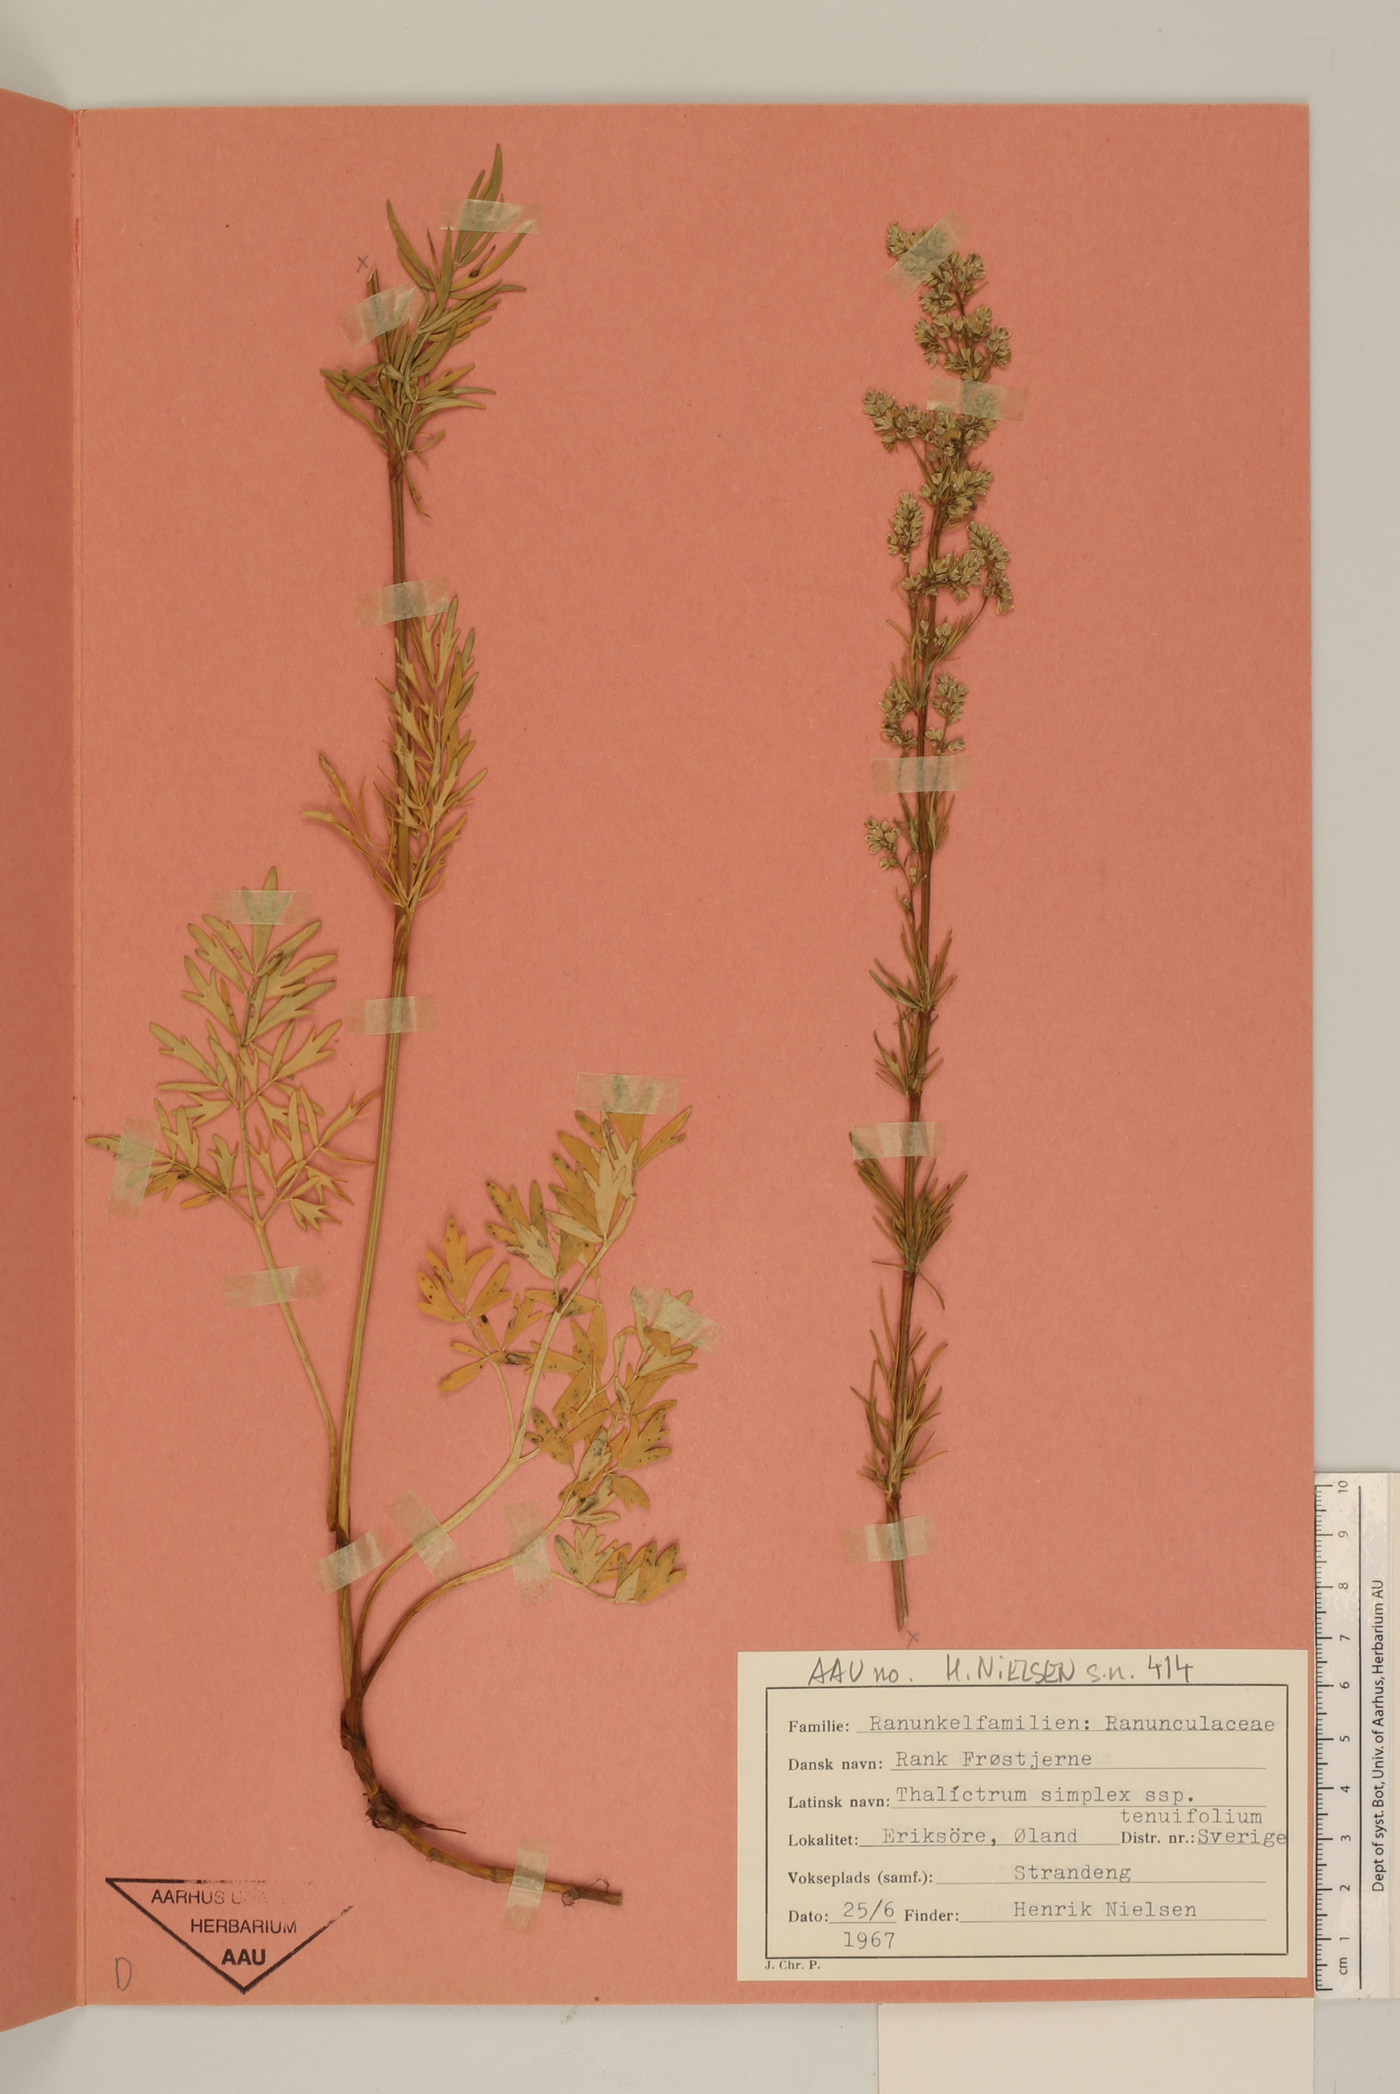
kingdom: Plantae
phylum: Tracheophyta
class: Magnoliopsida
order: Ranunculales
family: Ranunculaceae
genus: Thalictrum
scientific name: Thalictrum simplex
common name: Small meadow-rue
